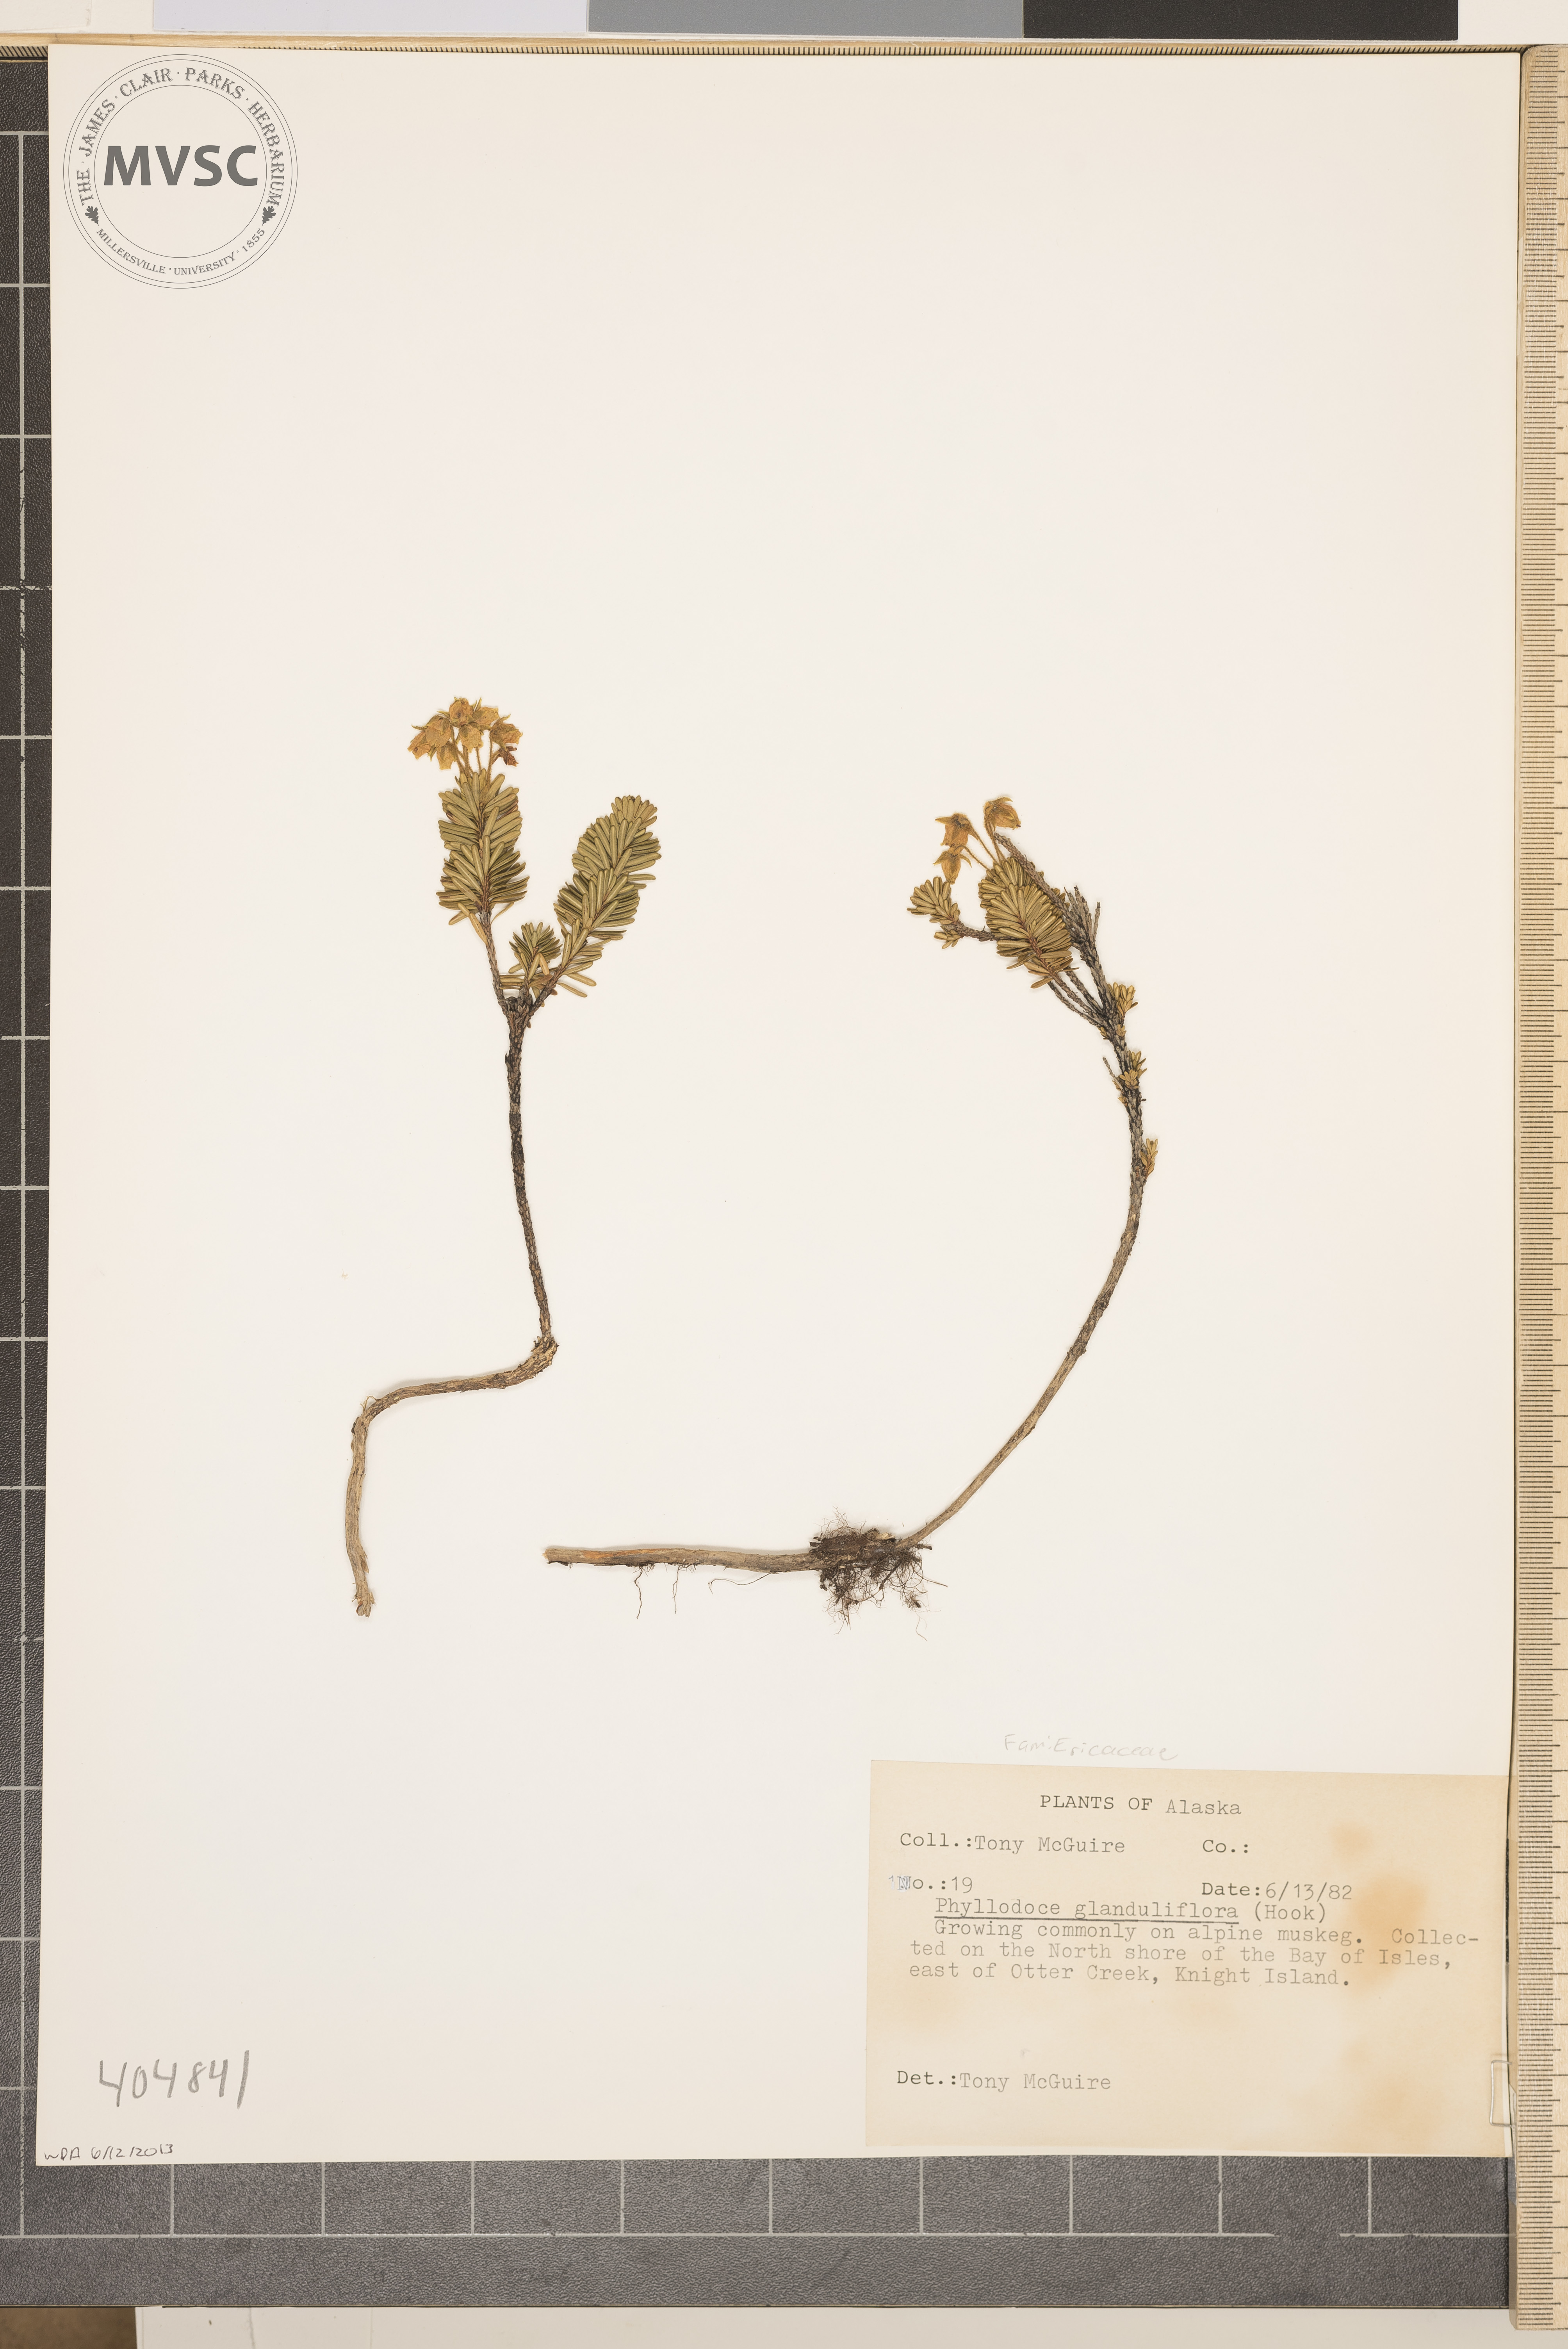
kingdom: Plantae
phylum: Tracheophyta
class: Magnoliopsida
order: Ericales
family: Ericaceae
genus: Phyllodoce
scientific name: Phyllodoce glanduliflora
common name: Cream mountain heather
